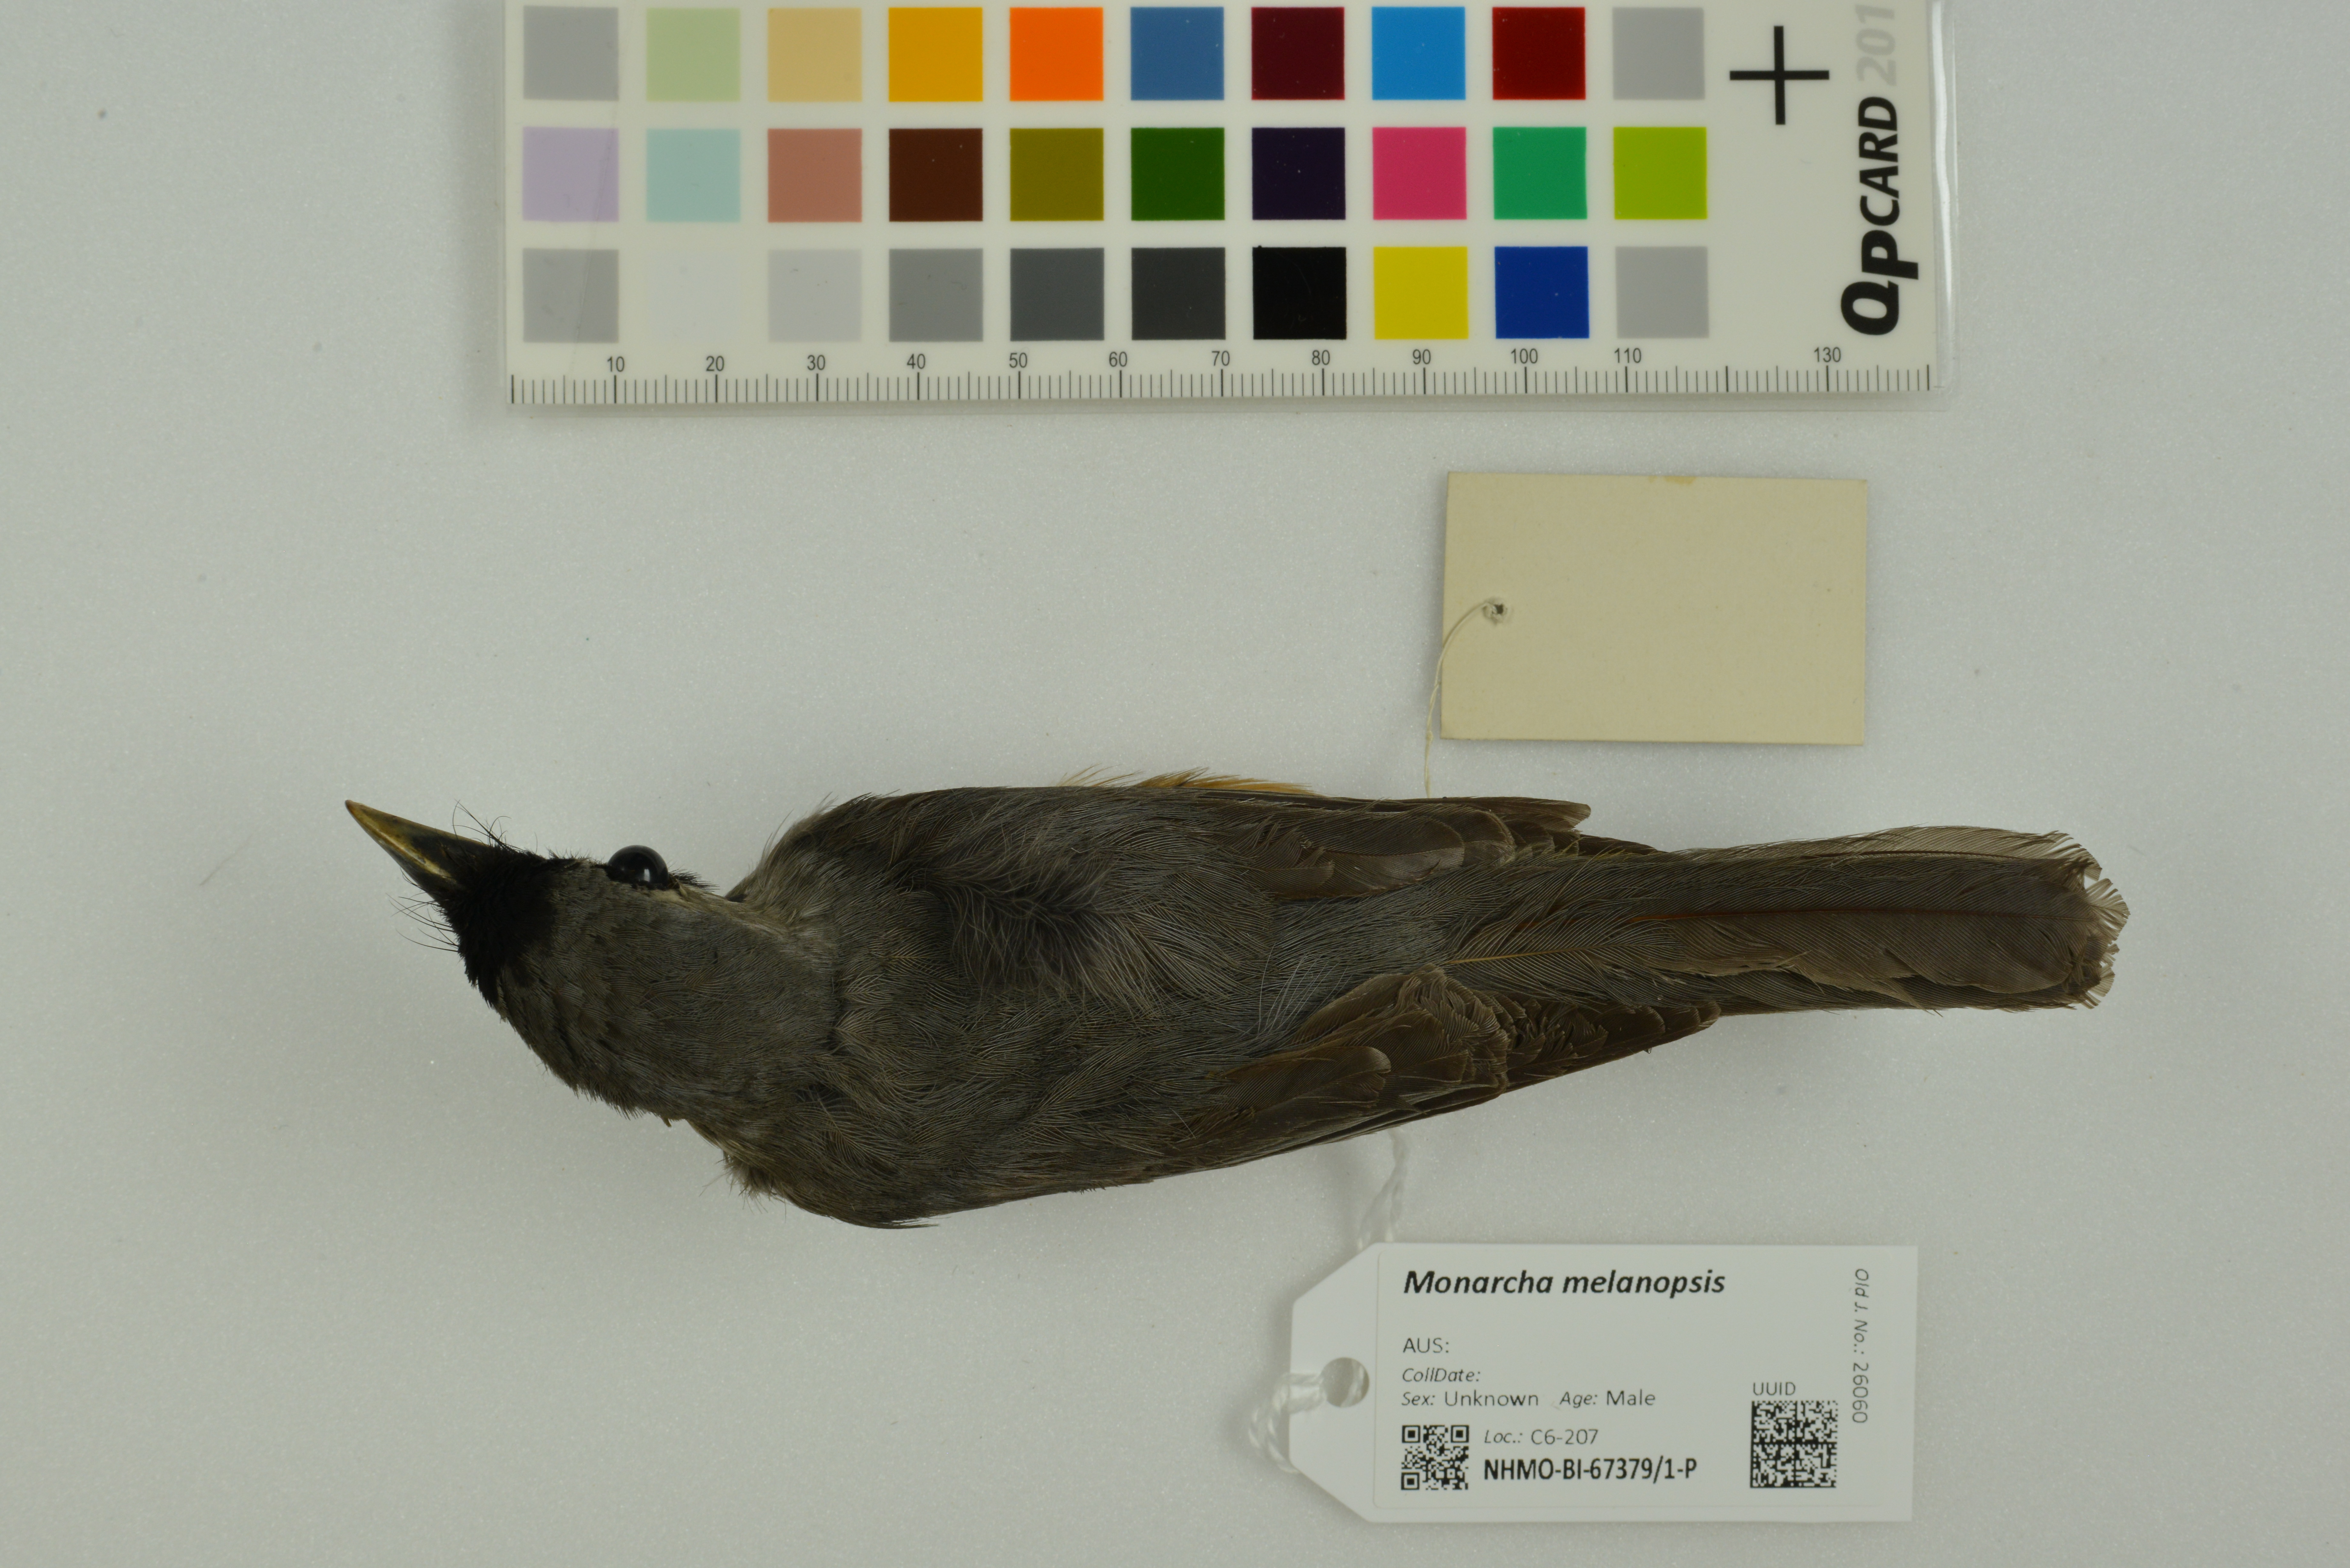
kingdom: Animalia
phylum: Chordata
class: Aves
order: Passeriformes
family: Monarchidae
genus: Monarcha
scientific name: Monarcha melanopsis
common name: Black-faced monarch
